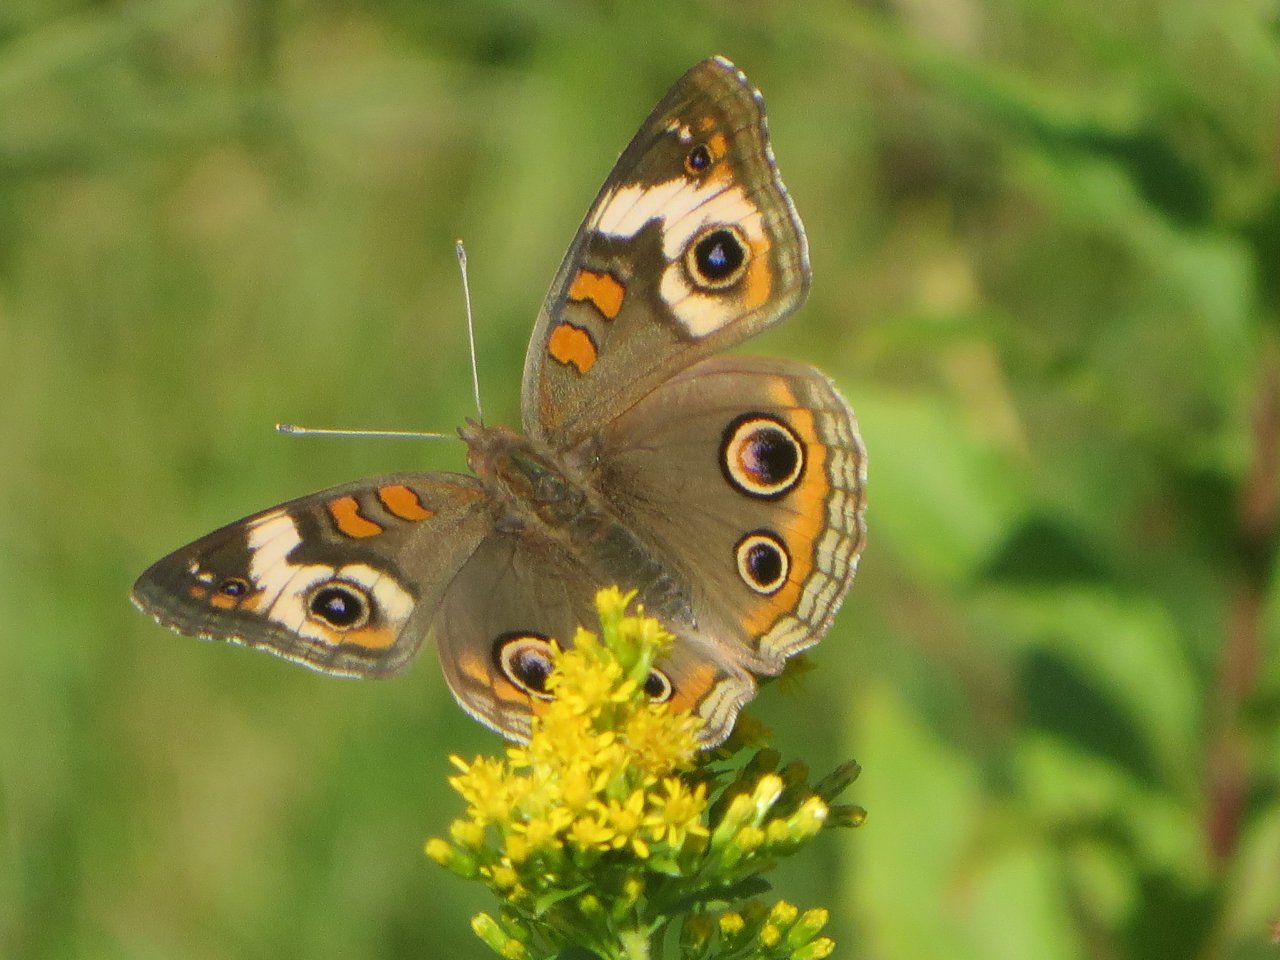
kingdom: Animalia
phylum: Arthropoda
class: Insecta
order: Lepidoptera
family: Nymphalidae
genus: Junonia
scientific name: Junonia coenia
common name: Common Buckeye
